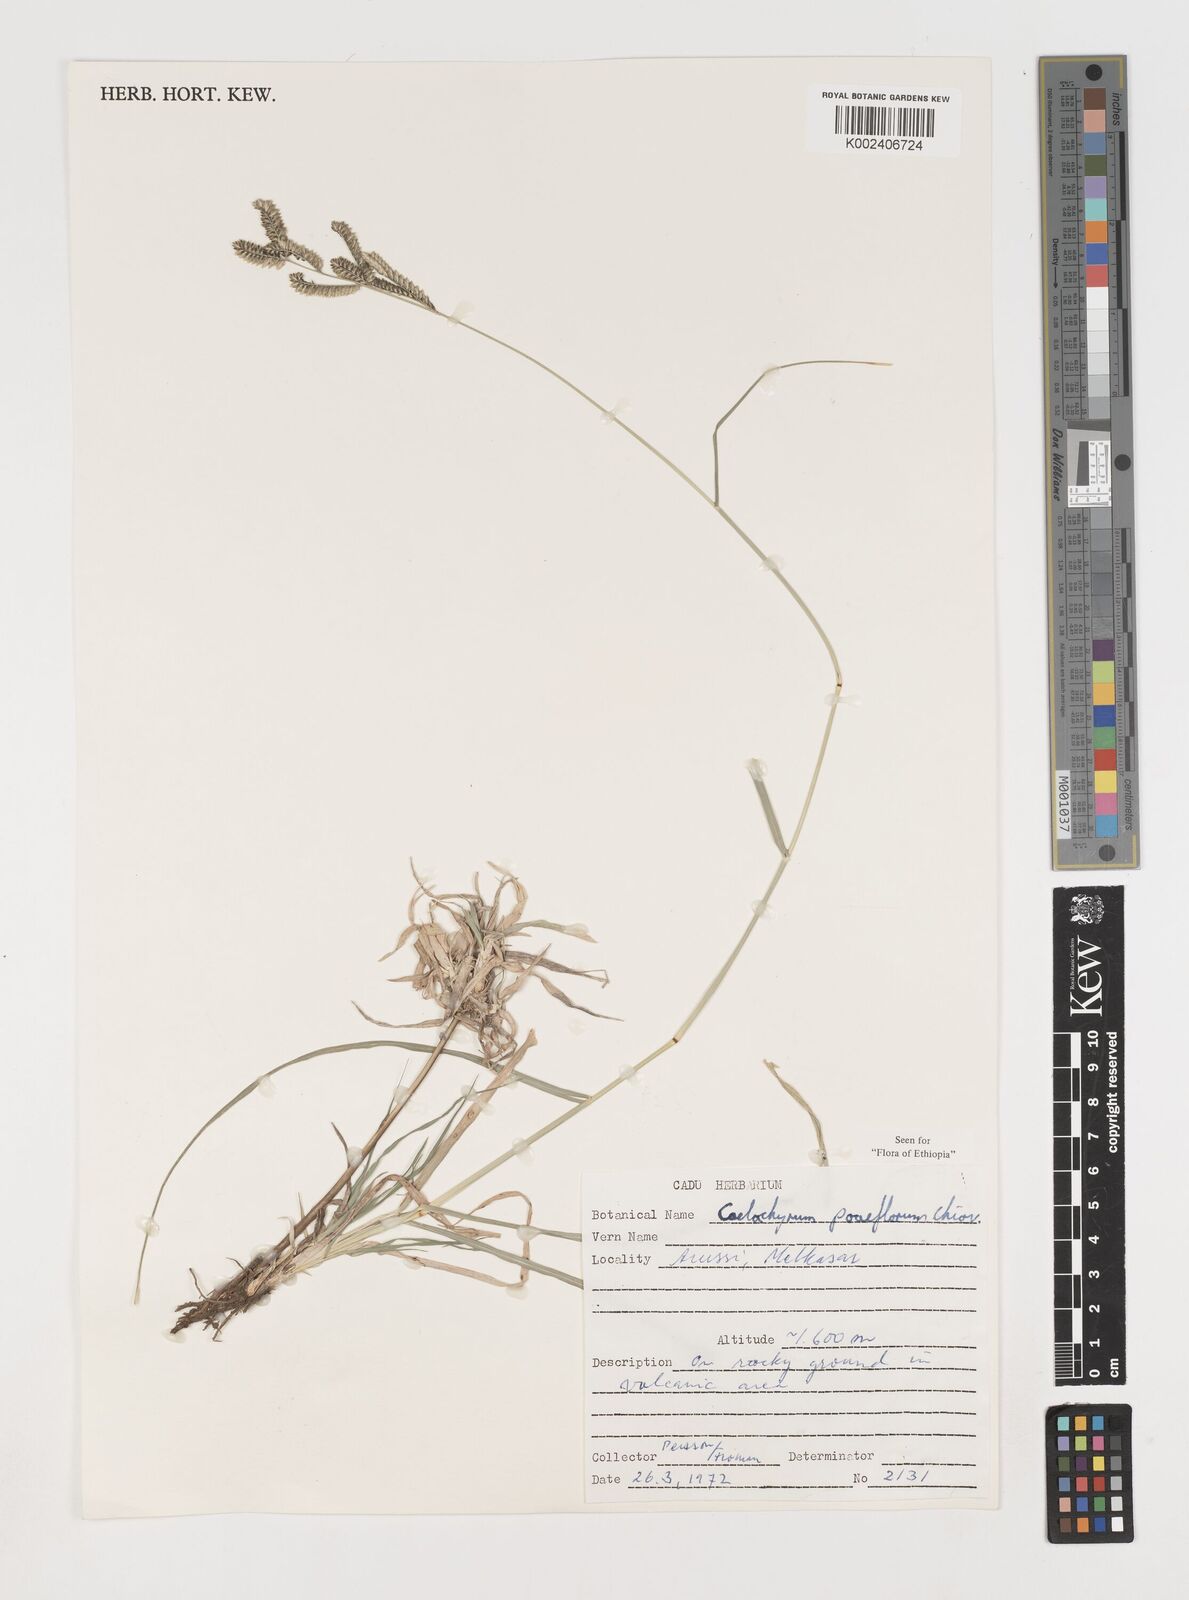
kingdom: Plantae
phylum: Tracheophyta
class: Liliopsida
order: Poales
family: Poaceae
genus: Coelachyrum
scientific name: Coelachyrum poiflorum
